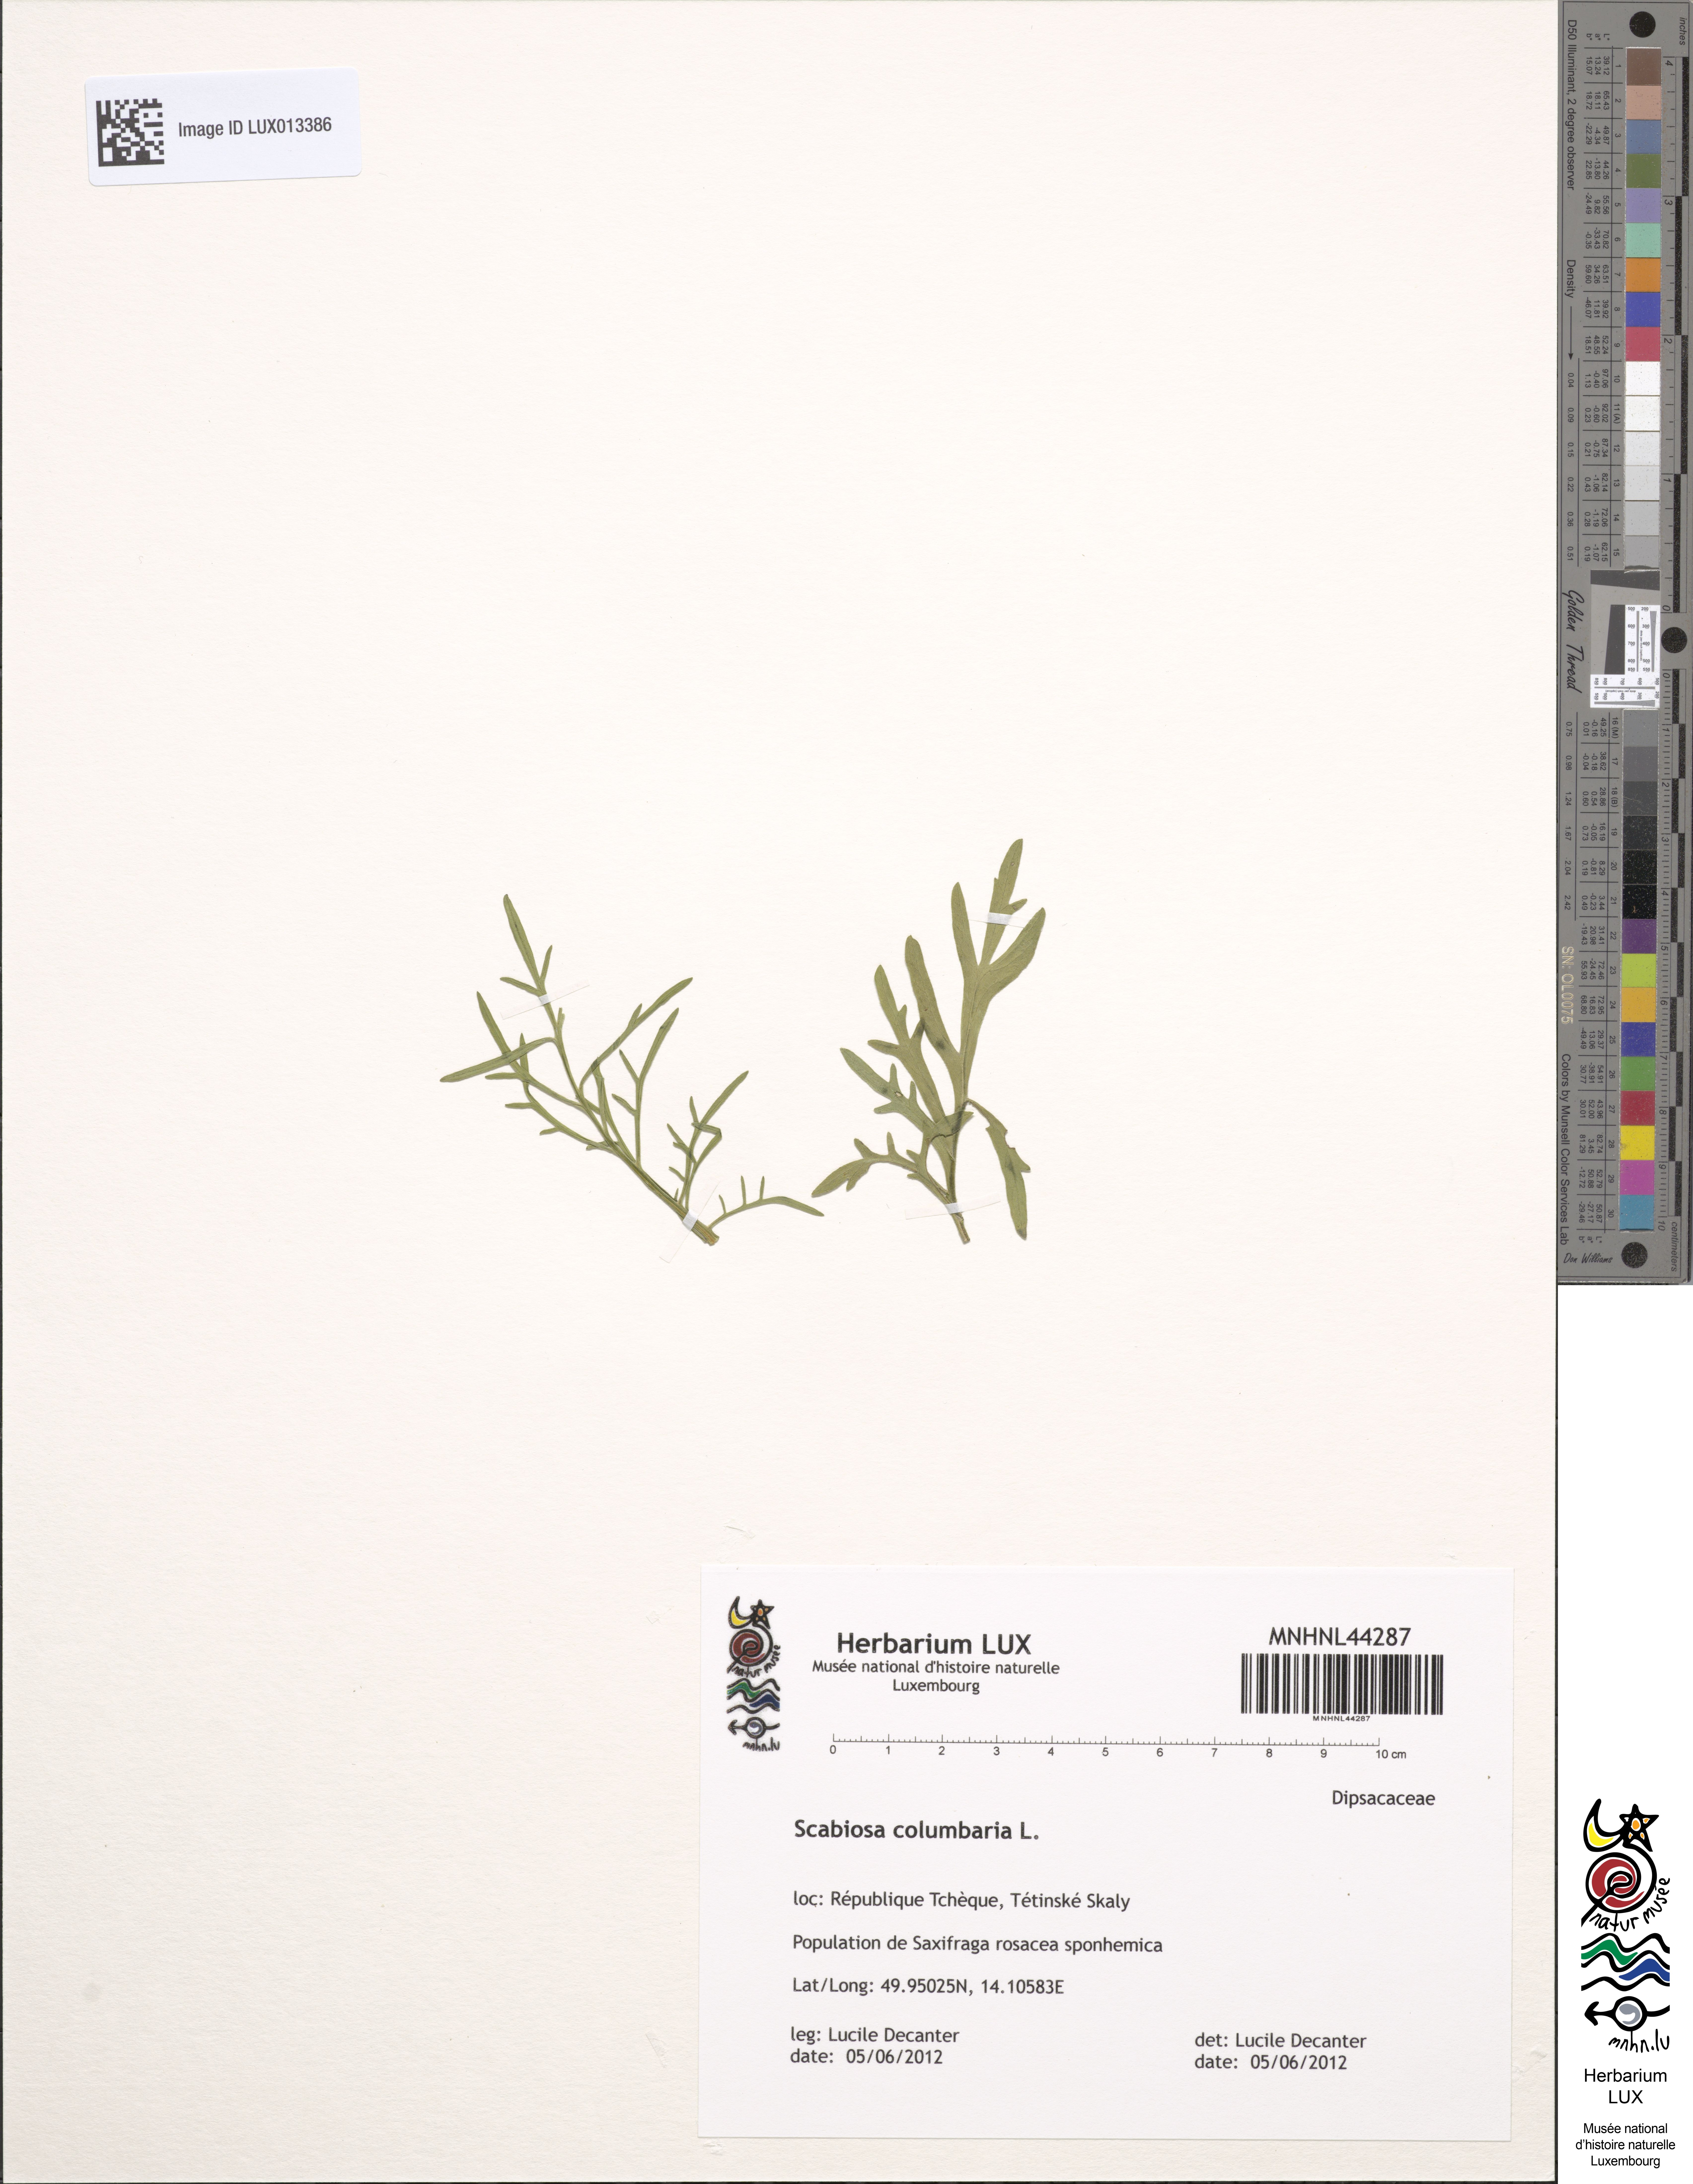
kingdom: Plantae
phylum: Tracheophyta
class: Magnoliopsida
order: Dipsacales
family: Caprifoliaceae
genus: Scabiosa
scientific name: Scabiosa columbaria
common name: Small scabious
